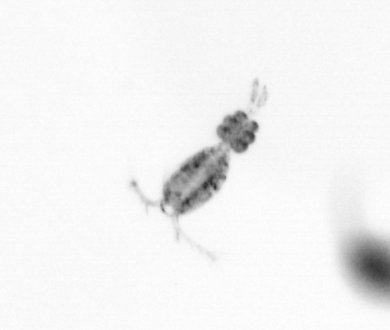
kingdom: Animalia
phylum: Arthropoda
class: Copepoda
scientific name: Copepoda
